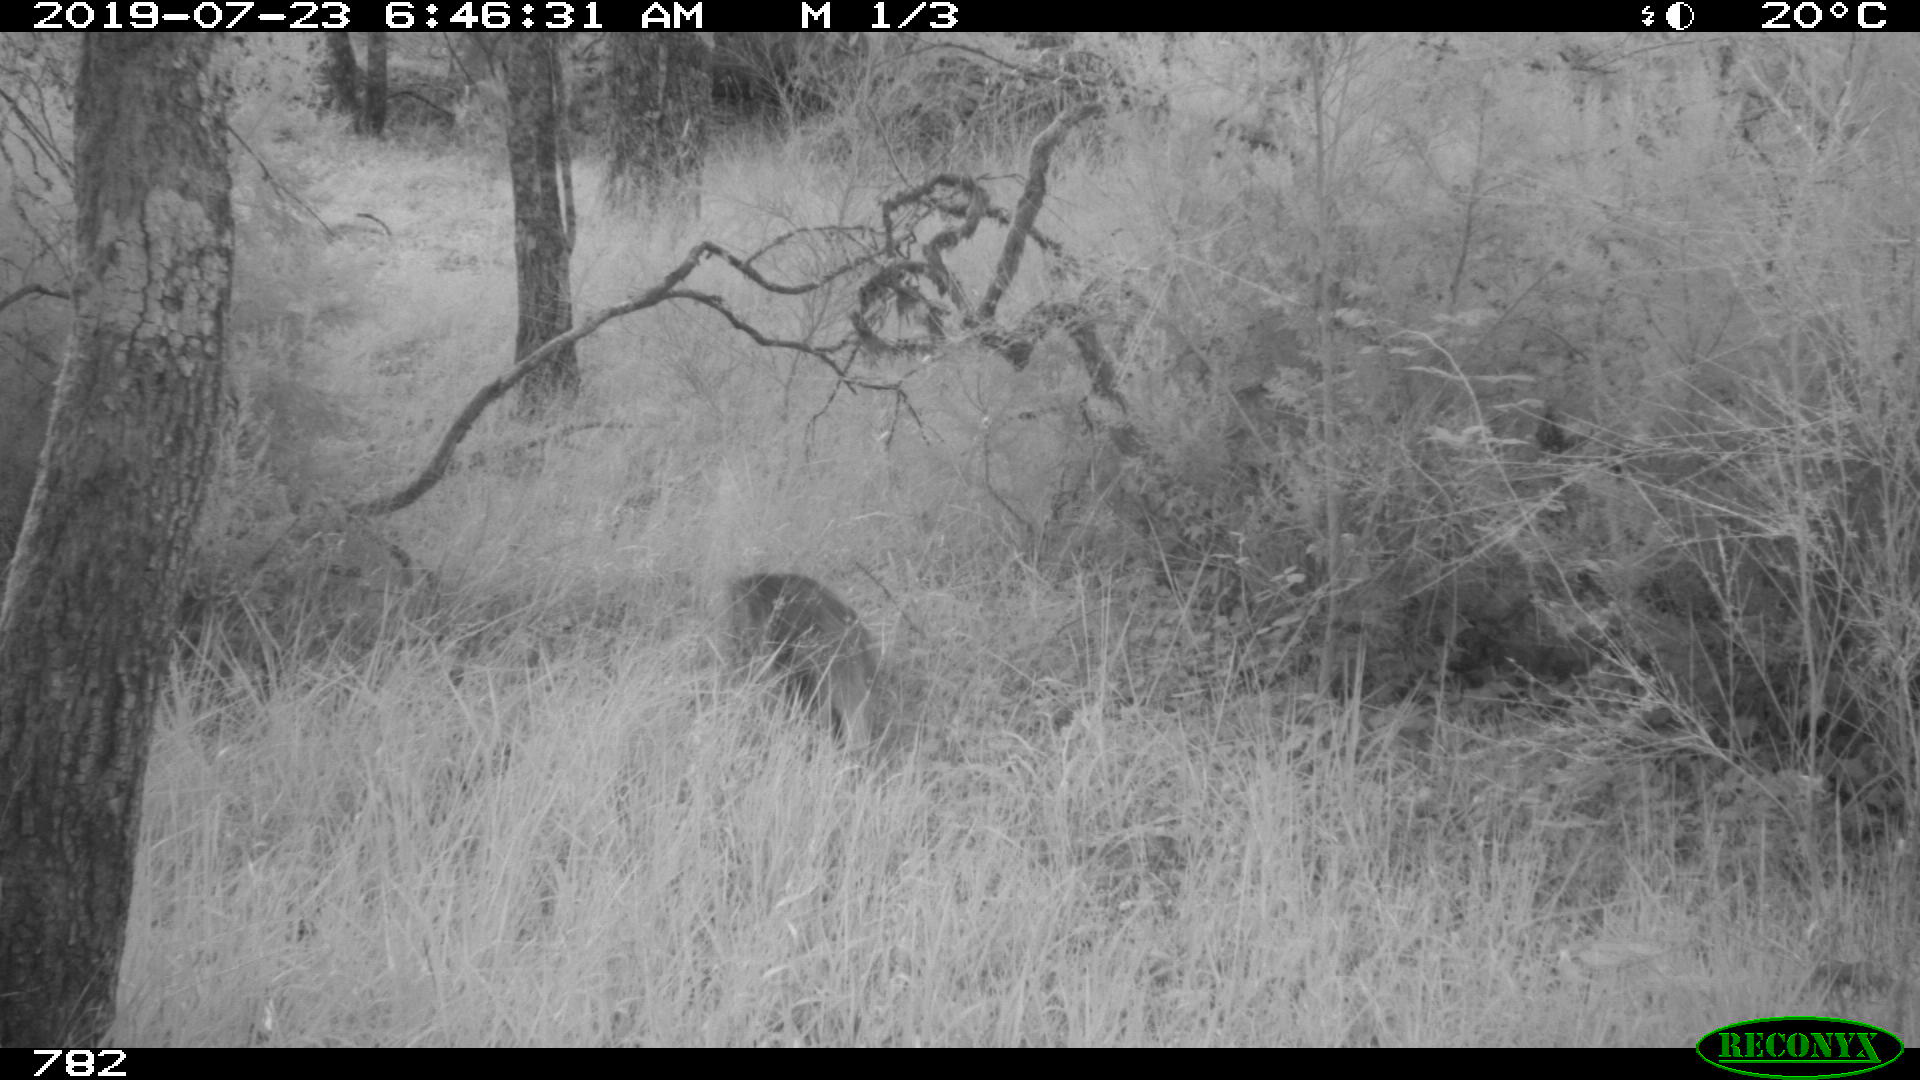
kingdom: Animalia
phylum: Chordata
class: Mammalia
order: Artiodactyla
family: Suidae
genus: Sus
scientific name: Sus scrofa
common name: Wild boar
